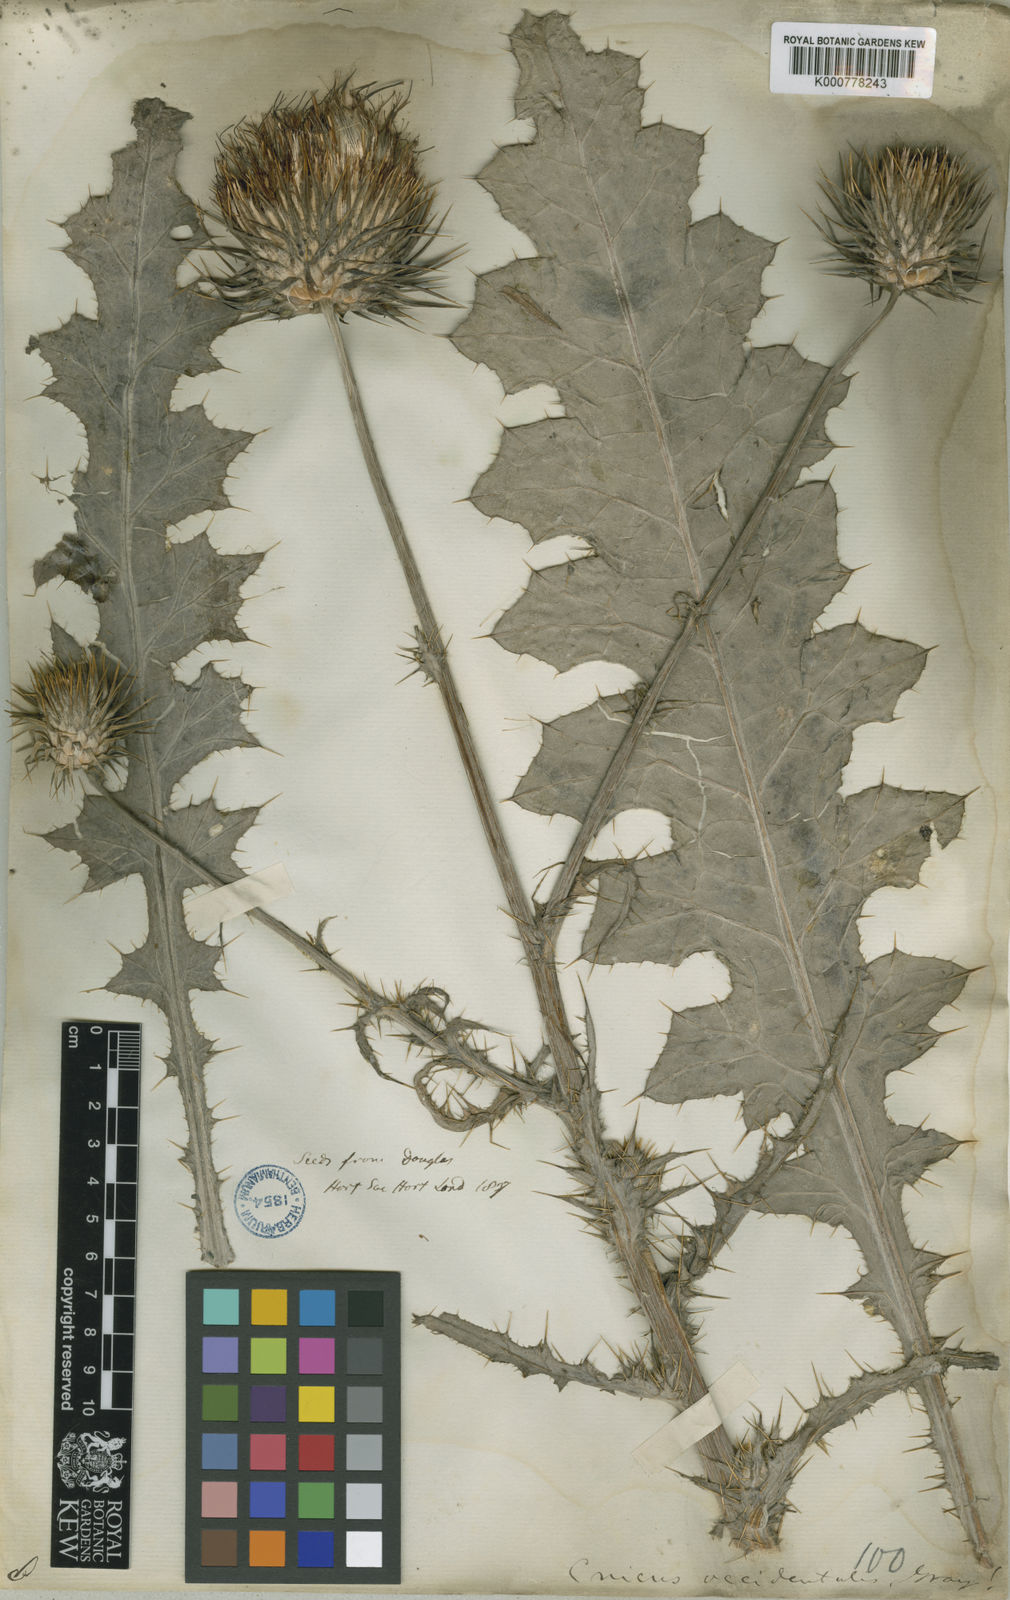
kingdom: Plantae
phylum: Tracheophyta
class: Magnoliopsida
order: Asterales
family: Asteraceae
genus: Cirsium
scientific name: Cirsium
